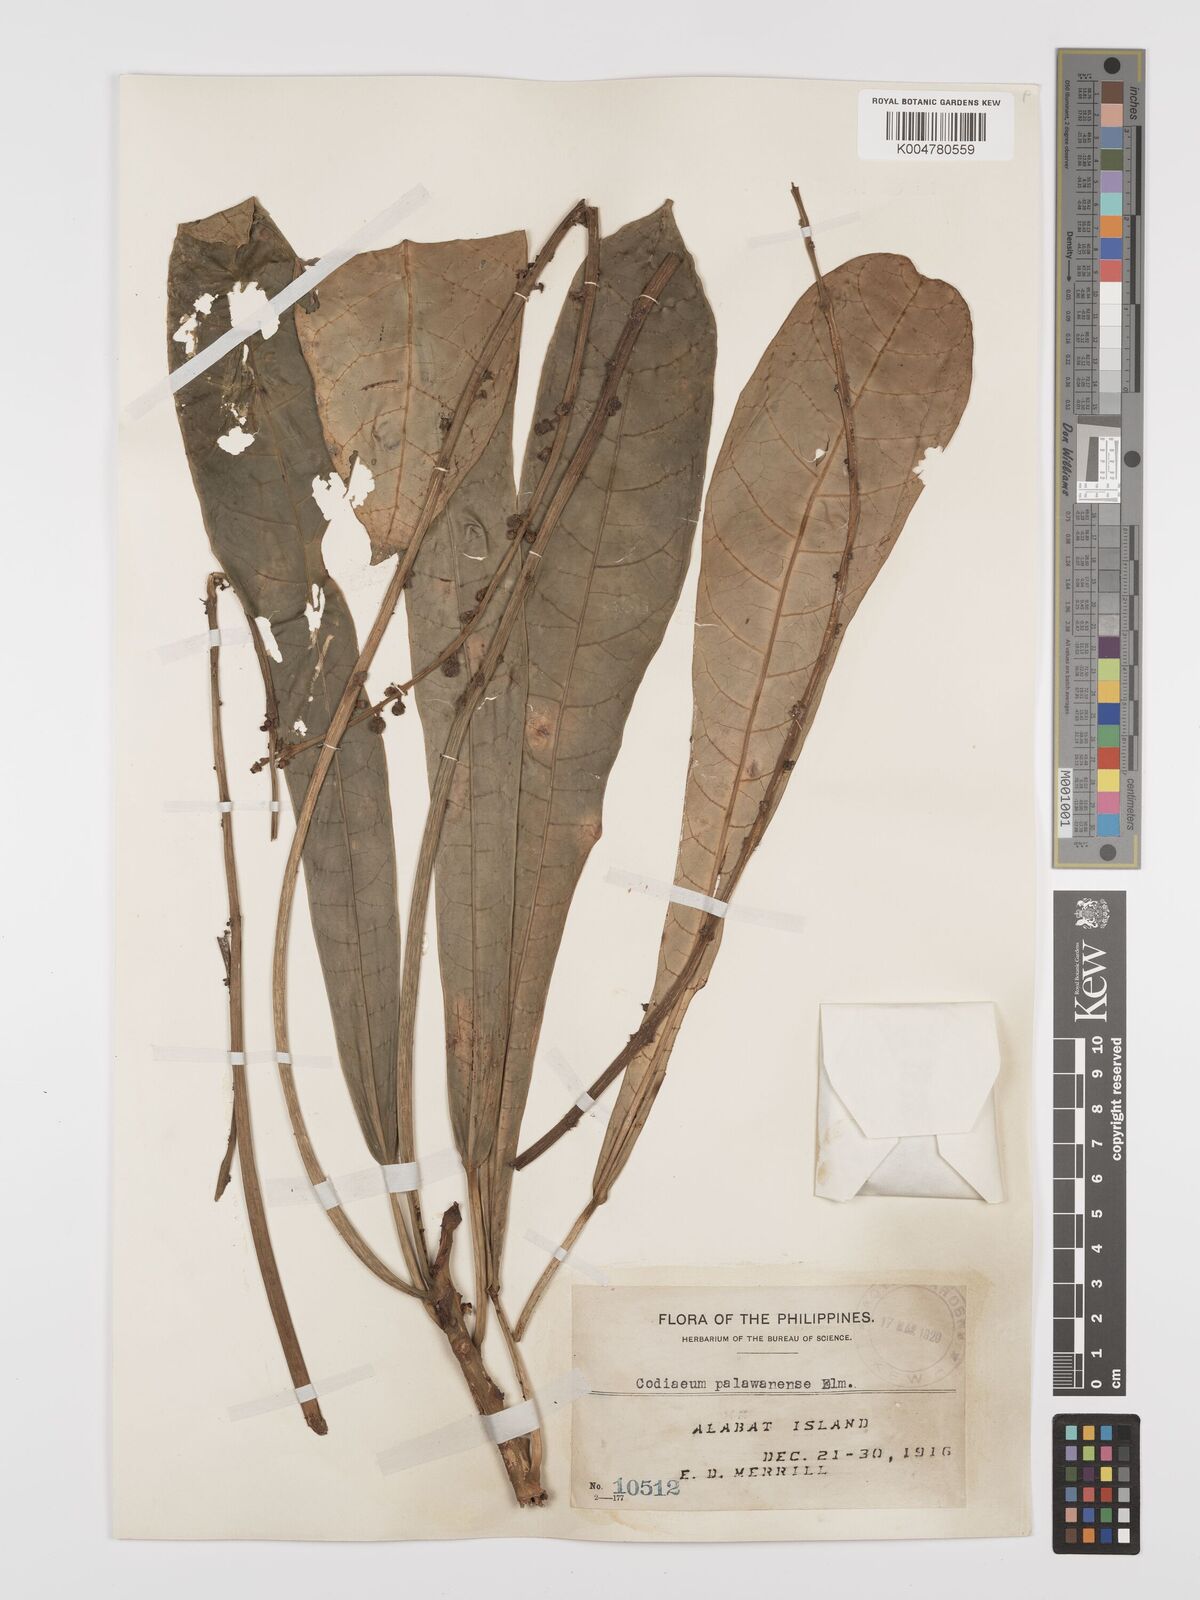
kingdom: Plantae
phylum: Tracheophyta
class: Magnoliopsida
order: Malpighiales
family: Euphorbiaceae
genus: Codiaeum
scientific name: Codiaeum palawanense
